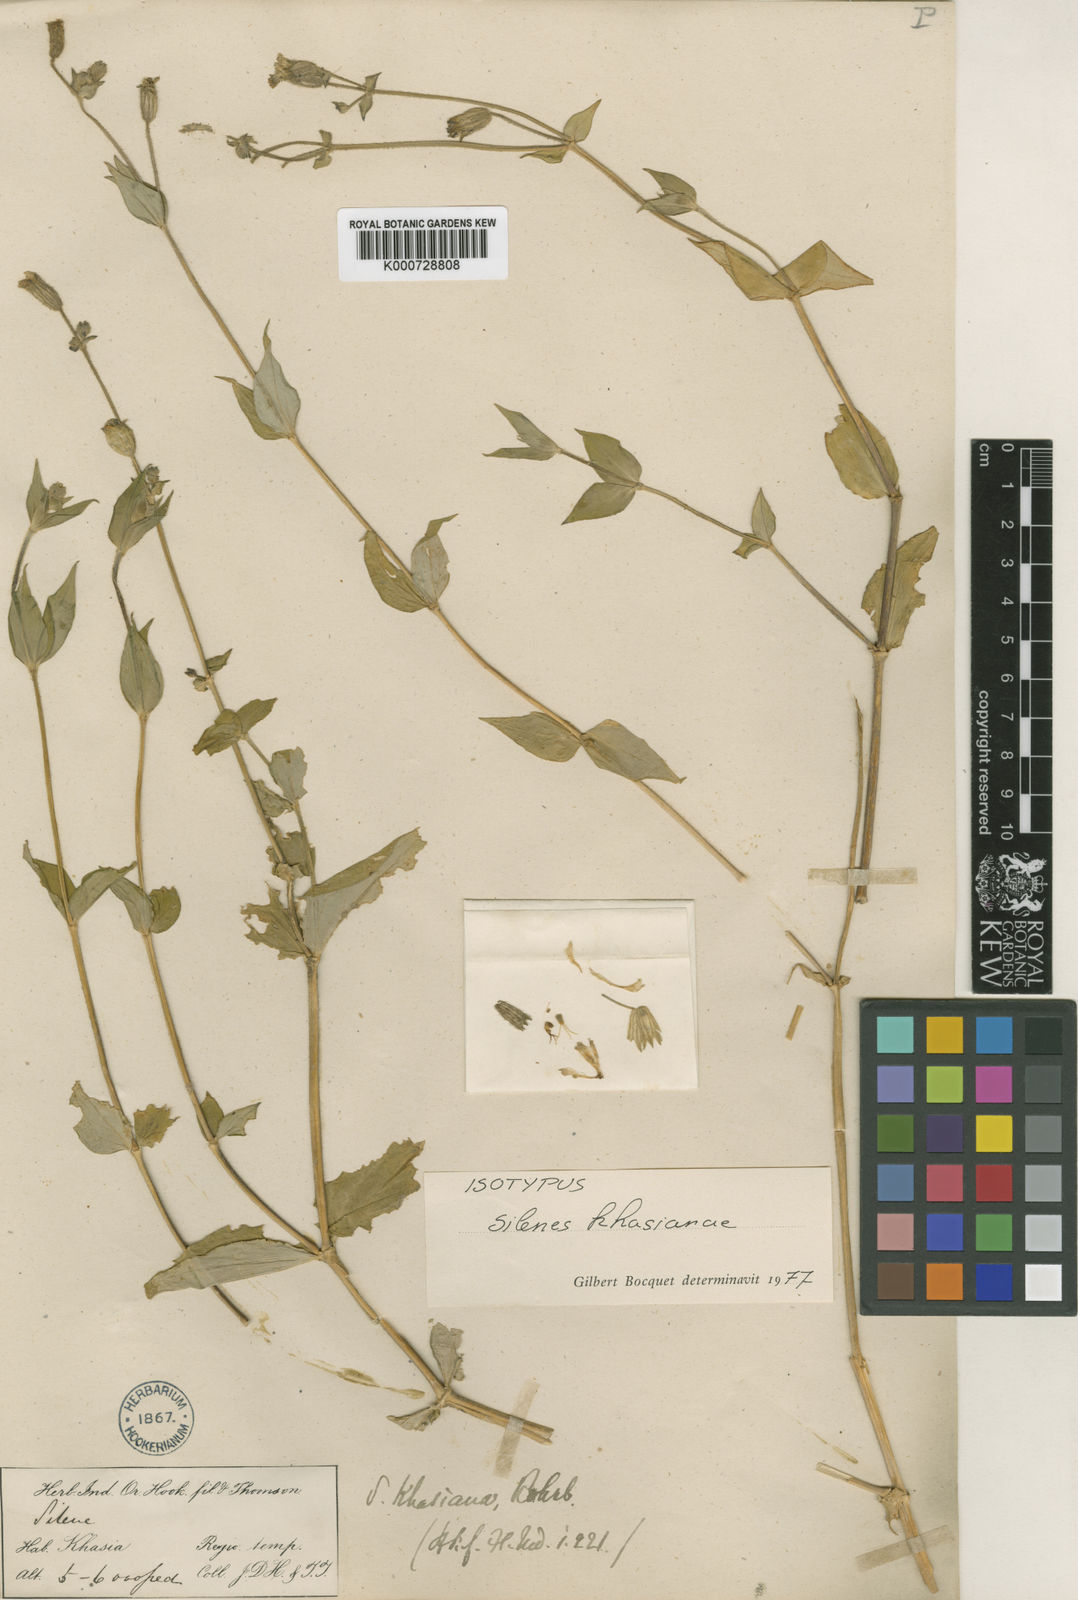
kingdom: Plantae
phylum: Tracheophyta
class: Magnoliopsida
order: Caryophyllales
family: Caryophyllaceae
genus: Silene
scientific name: Silene khasiana
